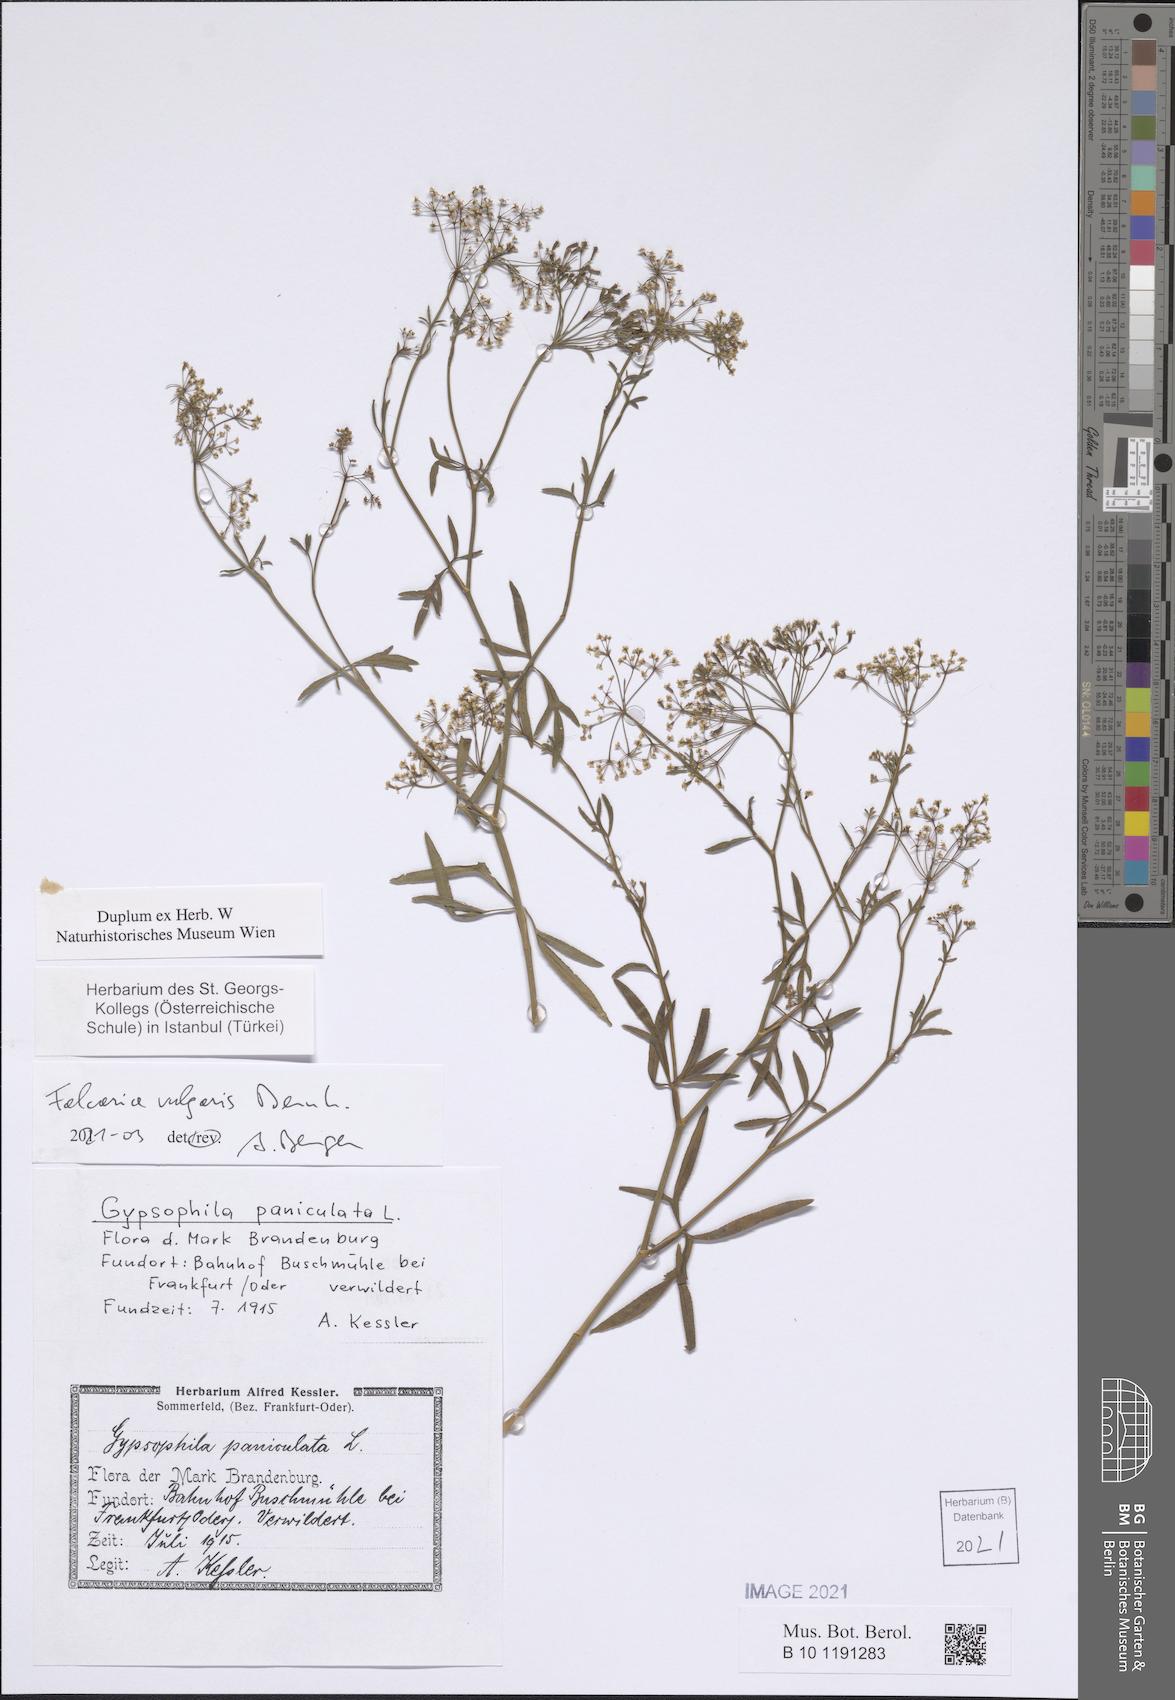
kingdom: Plantae
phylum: Tracheophyta
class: Magnoliopsida
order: Apiales
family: Apiaceae
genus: Falcaria
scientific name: Falcaria vulgaris
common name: Longleaf
